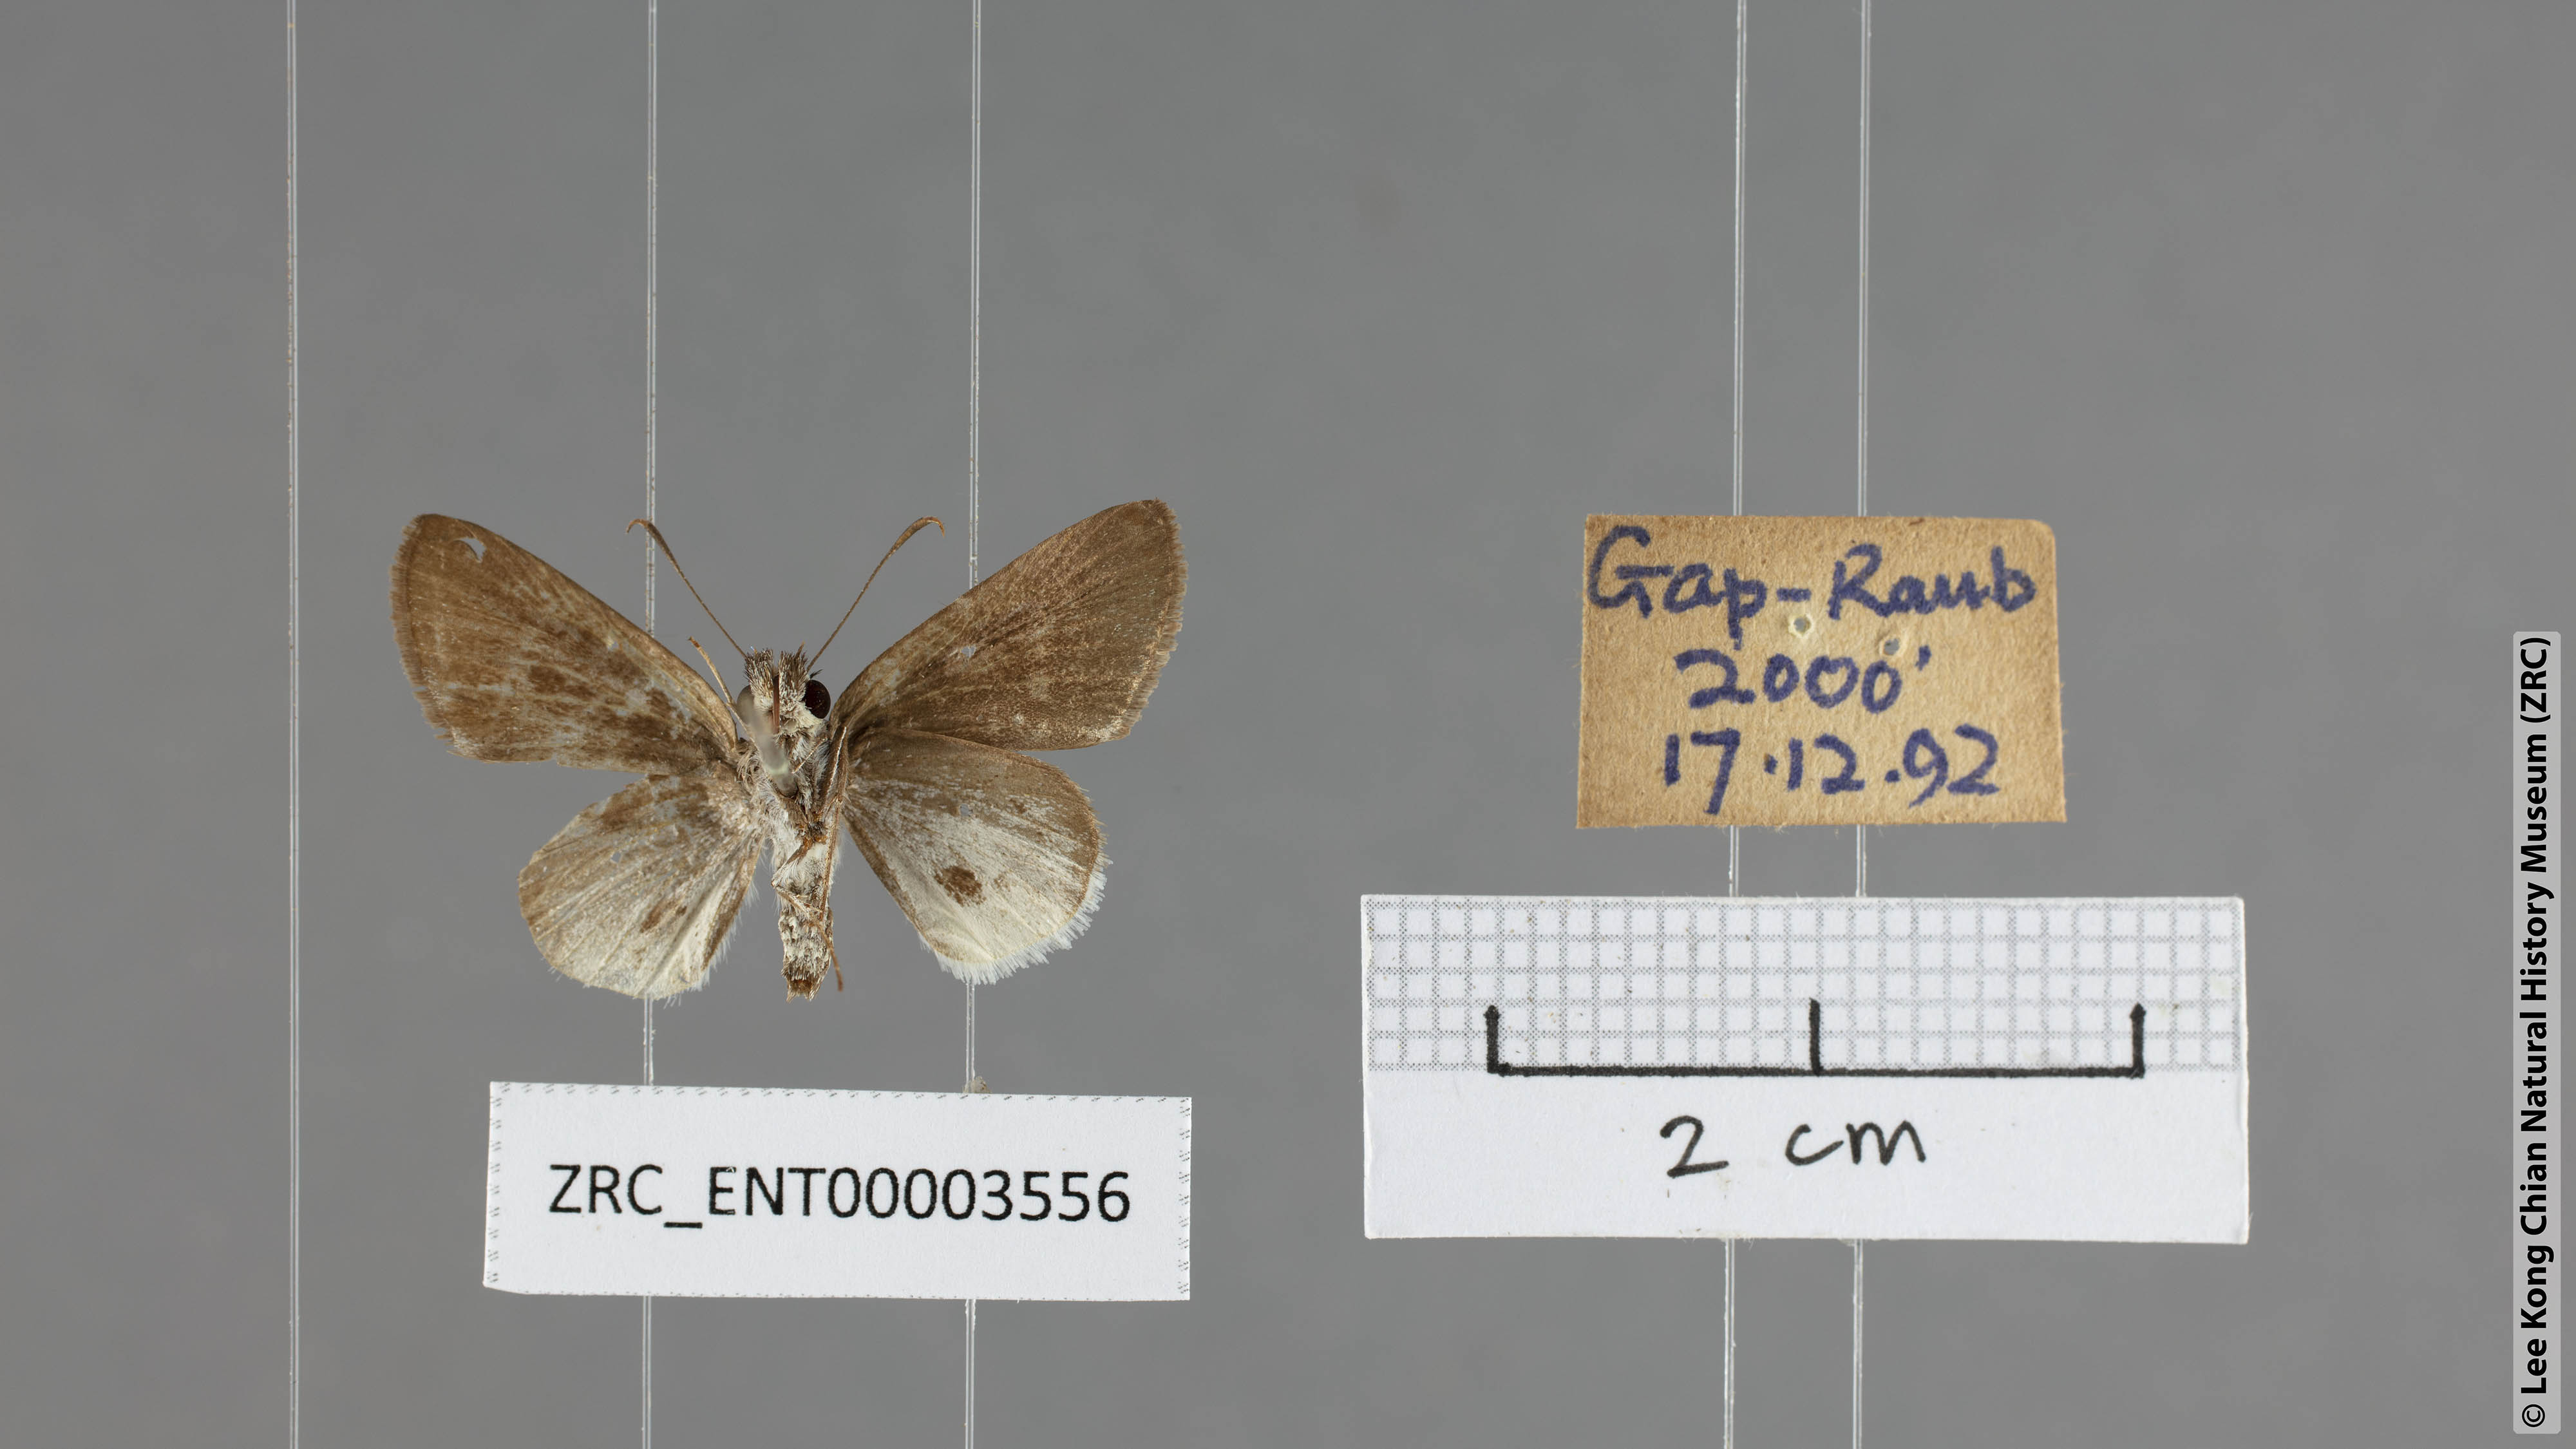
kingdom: Animalia
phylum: Arthropoda
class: Insecta
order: Lepidoptera
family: Hesperiidae
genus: Suastus
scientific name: Suastus everyx
